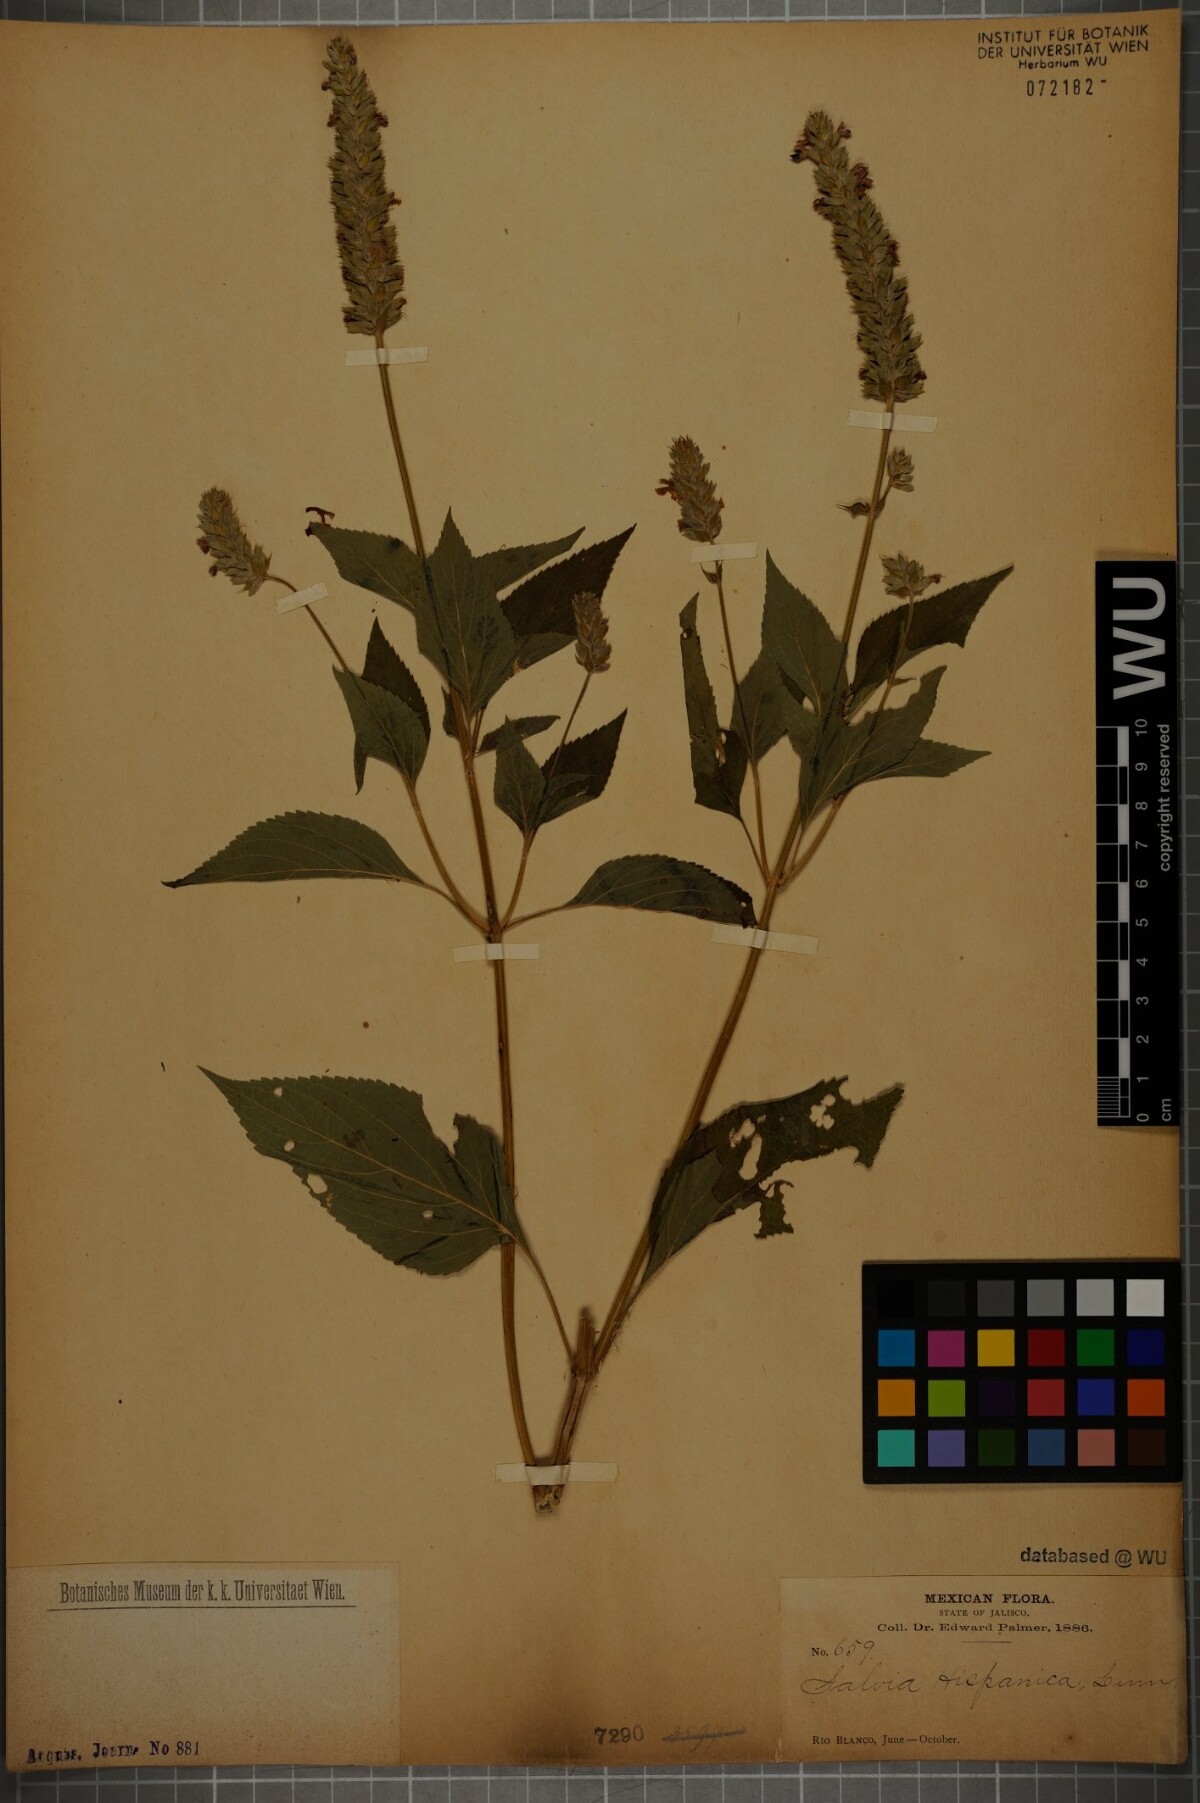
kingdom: Plantae
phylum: Tracheophyta
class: Magnoliopsida
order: Lamiales
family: Lamiaceae
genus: Salvia
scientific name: Salvia hispanica
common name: Chia
